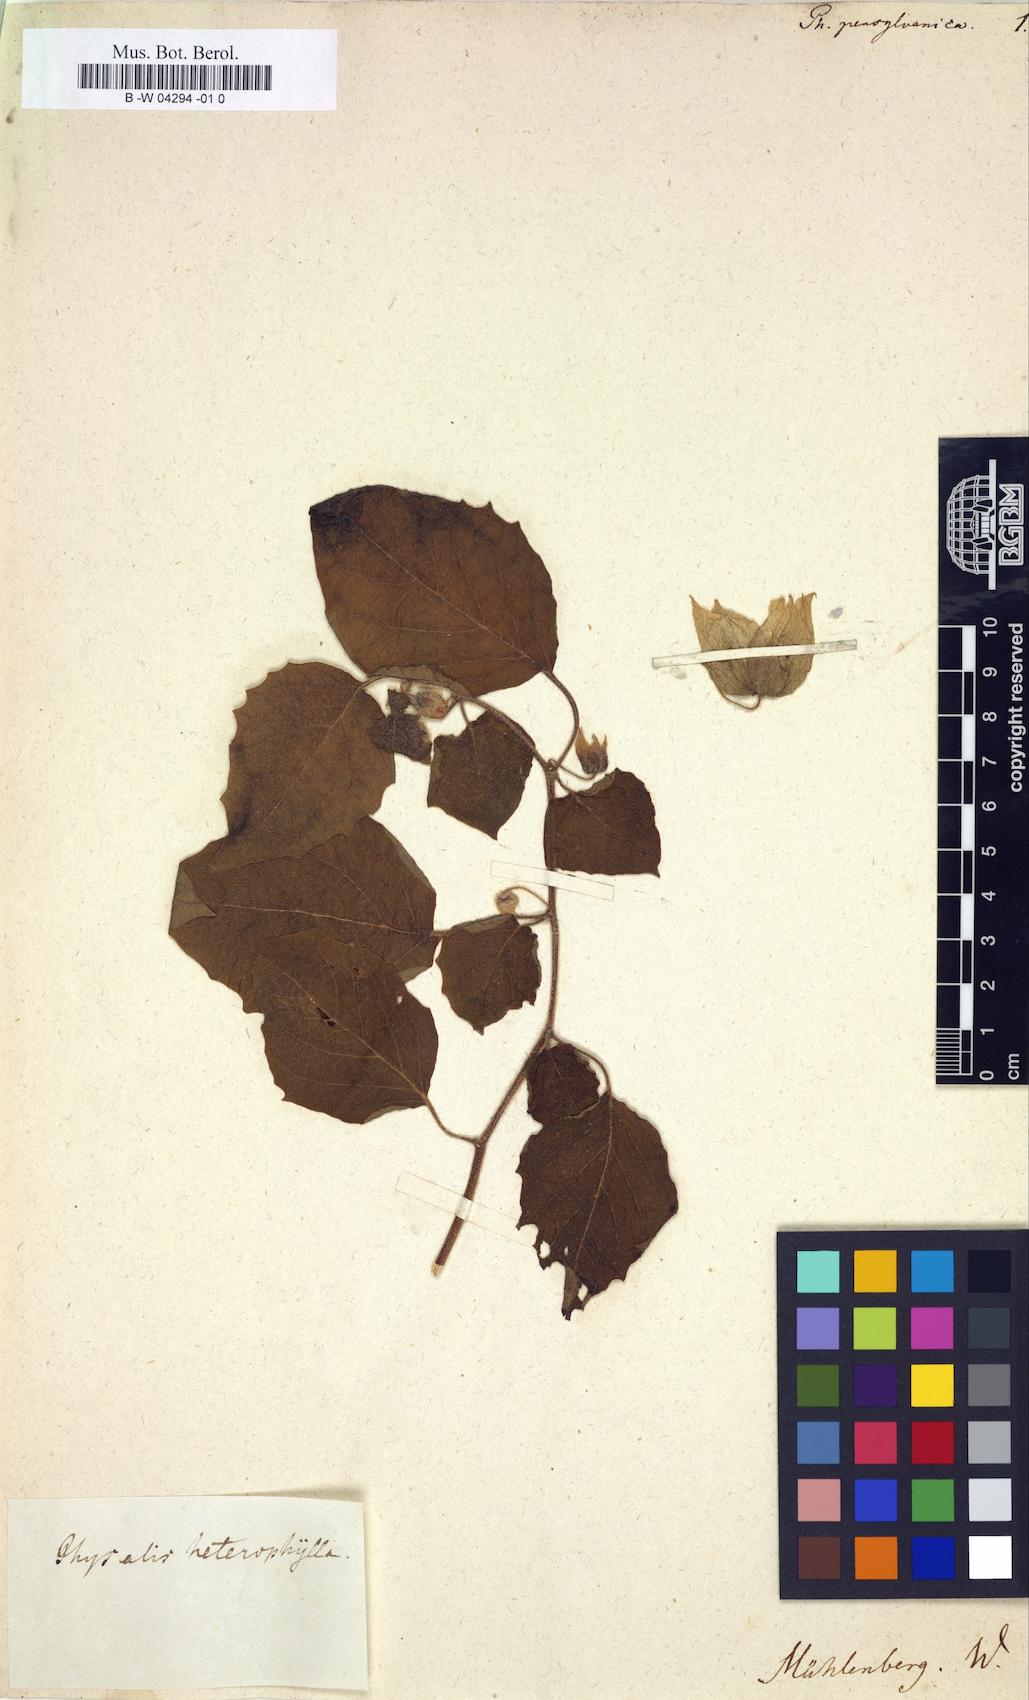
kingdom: Plantae
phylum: Tracheophyta
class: Magnoliopsida
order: Solanales
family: Solanaceae
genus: Physalis
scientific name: Physalis virginiana
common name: Virginia ground-cherry
